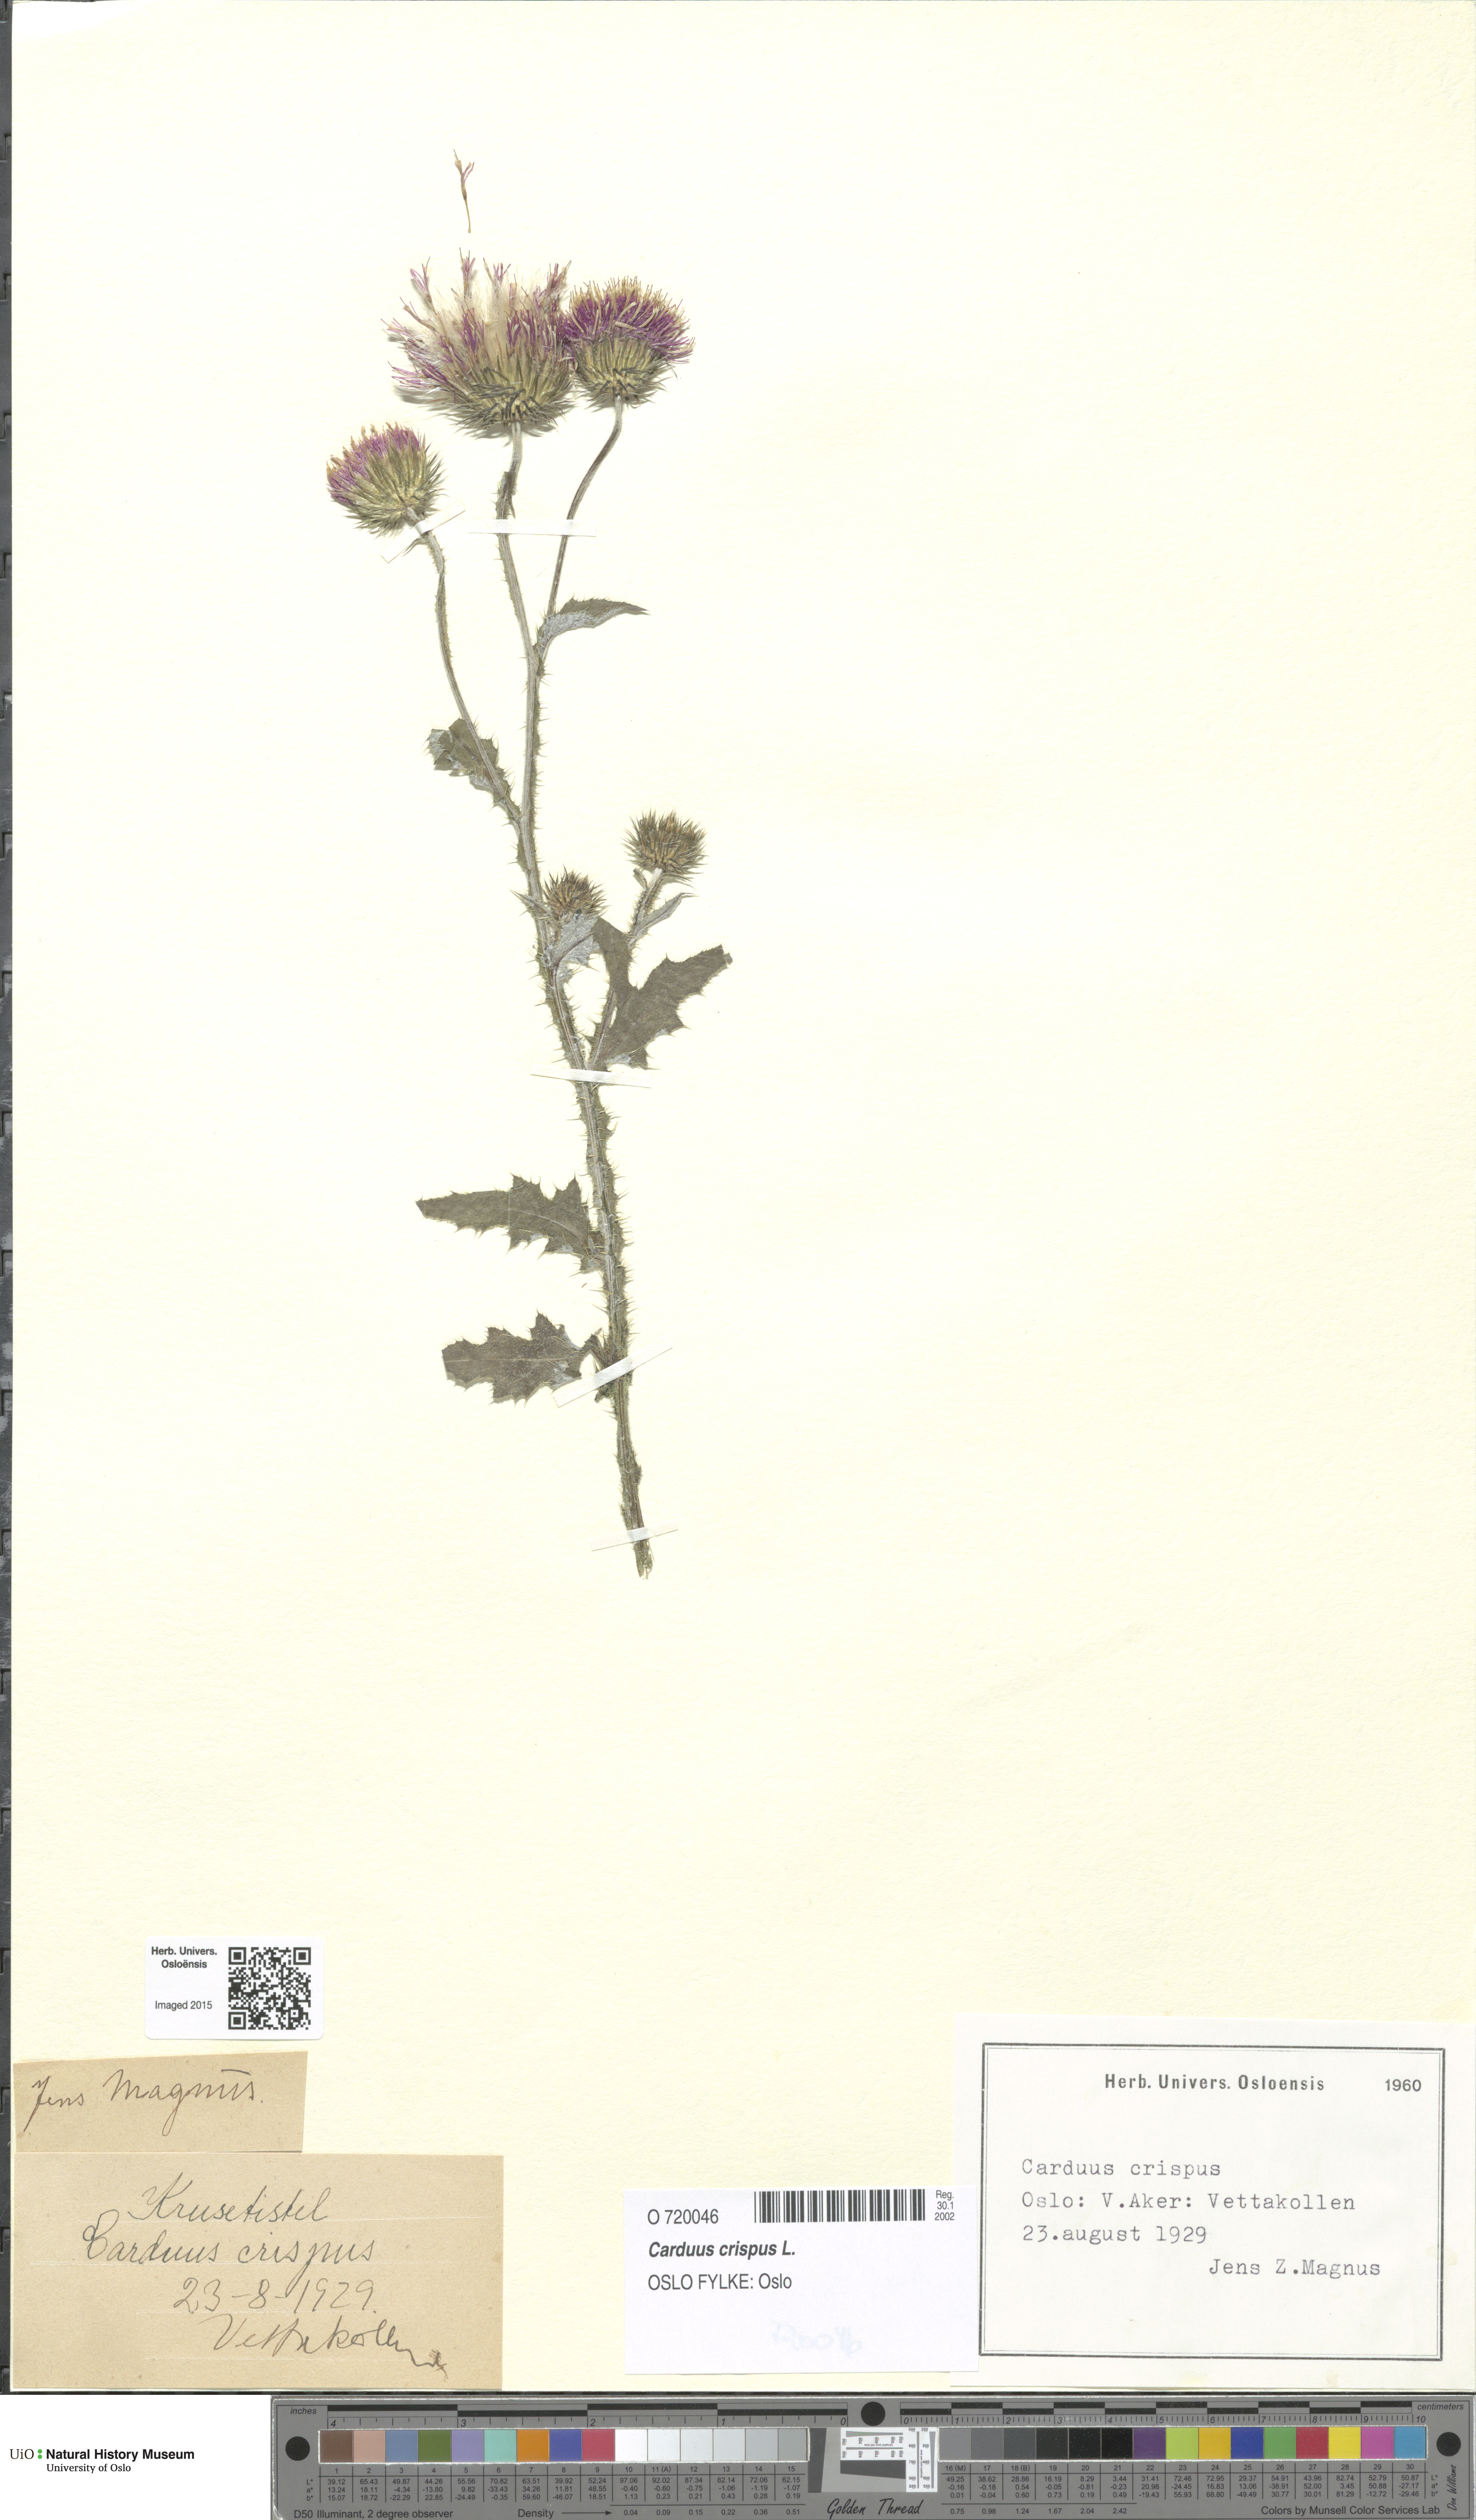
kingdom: Plantae
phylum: Tracheophyta
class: Magnoliopsida
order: Asterales
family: Asteraceae
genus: Carduus
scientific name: Carduus crispus
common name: Welted thistle
